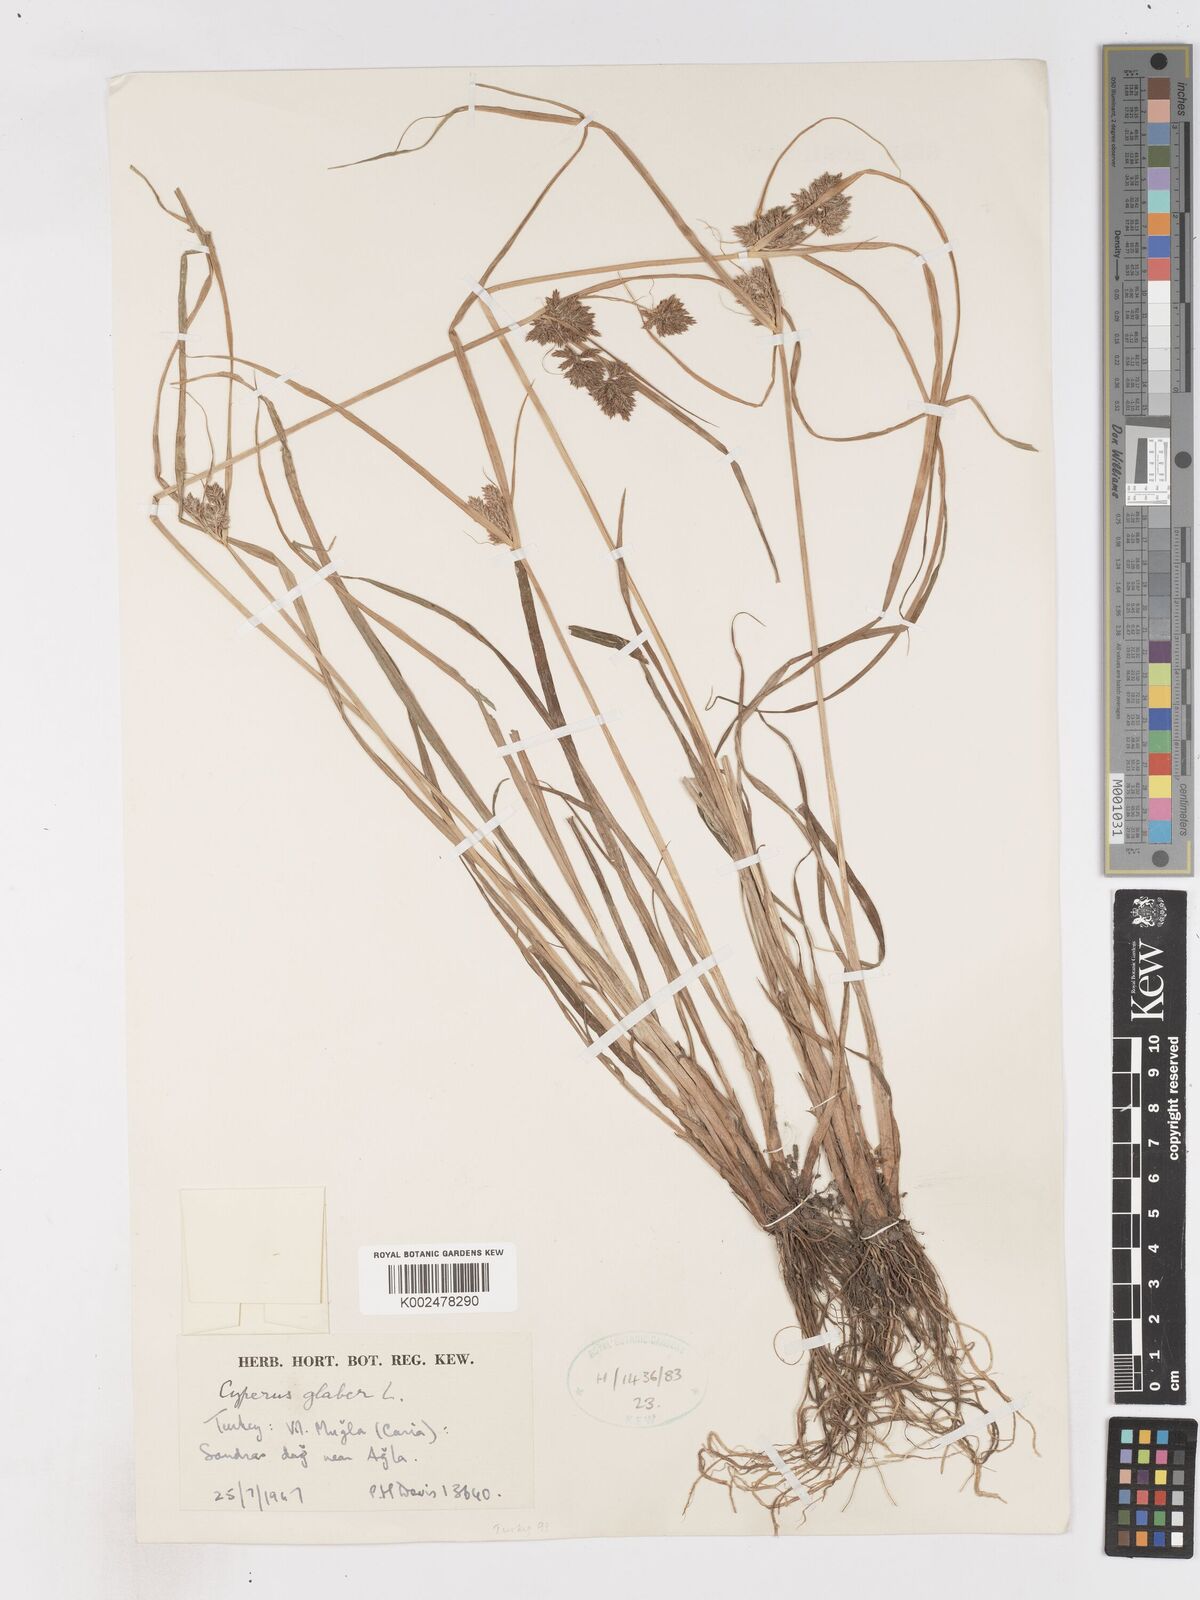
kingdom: Plantae
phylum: Tracheophyta
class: Liliopsida
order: Poales
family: Cyperaceae
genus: Cyperus
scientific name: Cyperus glaber
